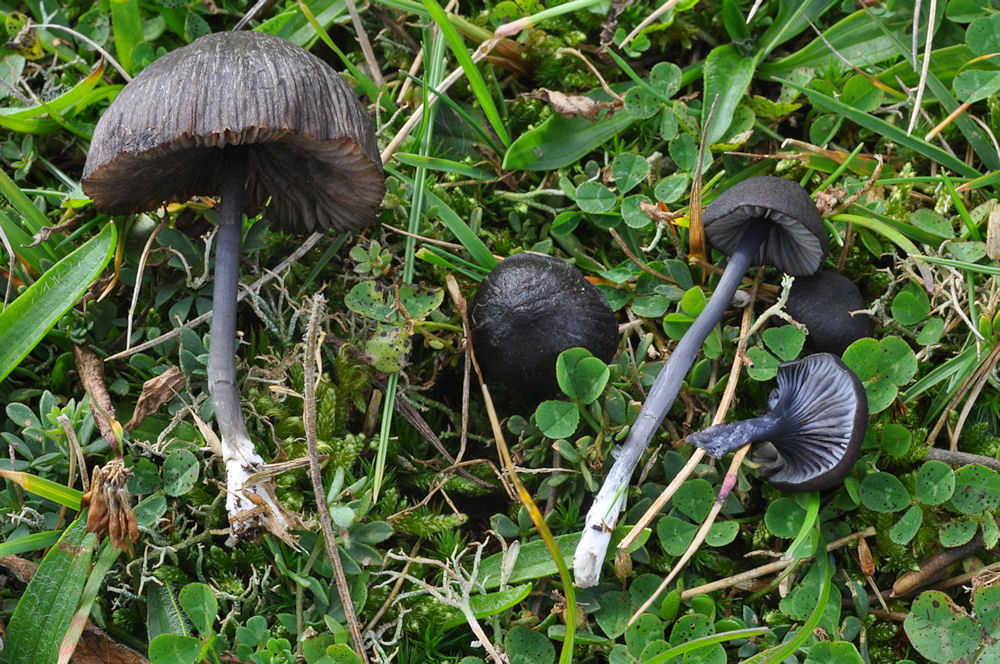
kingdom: Fungi
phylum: Basidiomycota
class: Agaricomycetes
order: Agaricales
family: Entolomataceae
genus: Entoloma
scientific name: Entoloma chalybeum
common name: blåbladet rødblad
